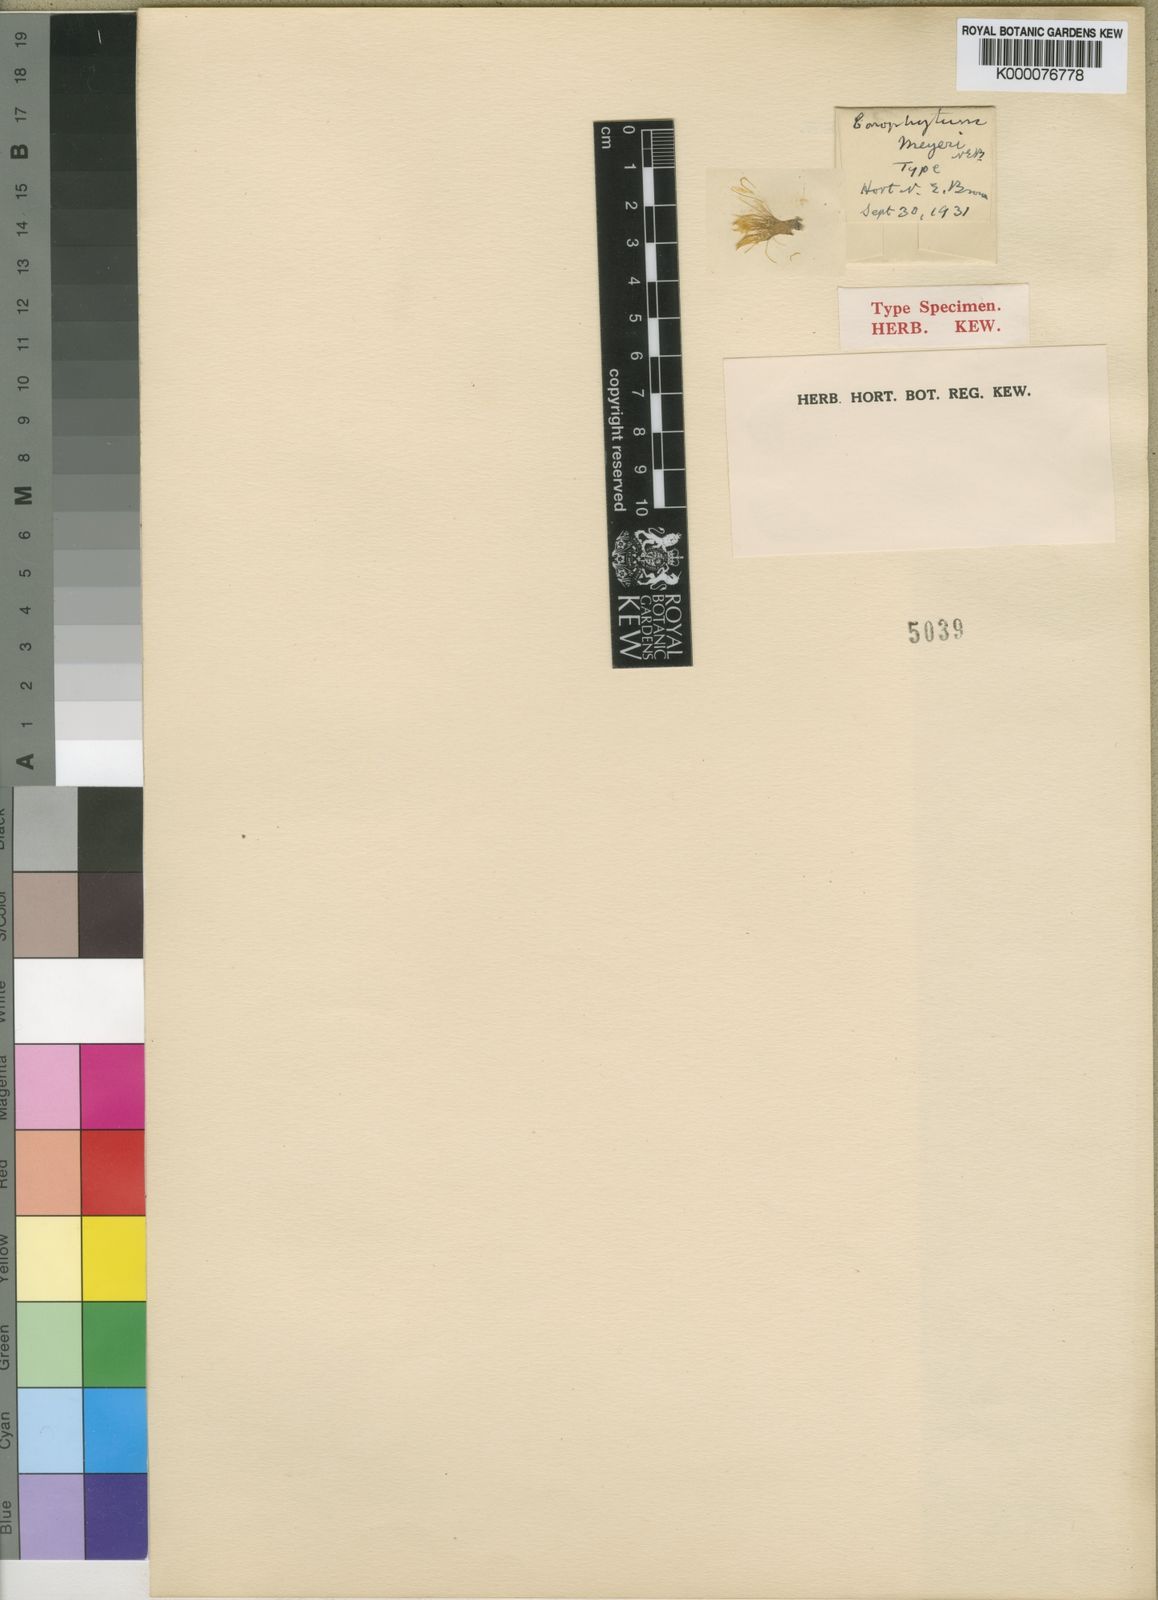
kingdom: Plantae
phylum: Tracheophyta
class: Magnoliopsida
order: Caryophyllales
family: Aizoaceae
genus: Conophytum
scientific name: Conophytum meyeri
